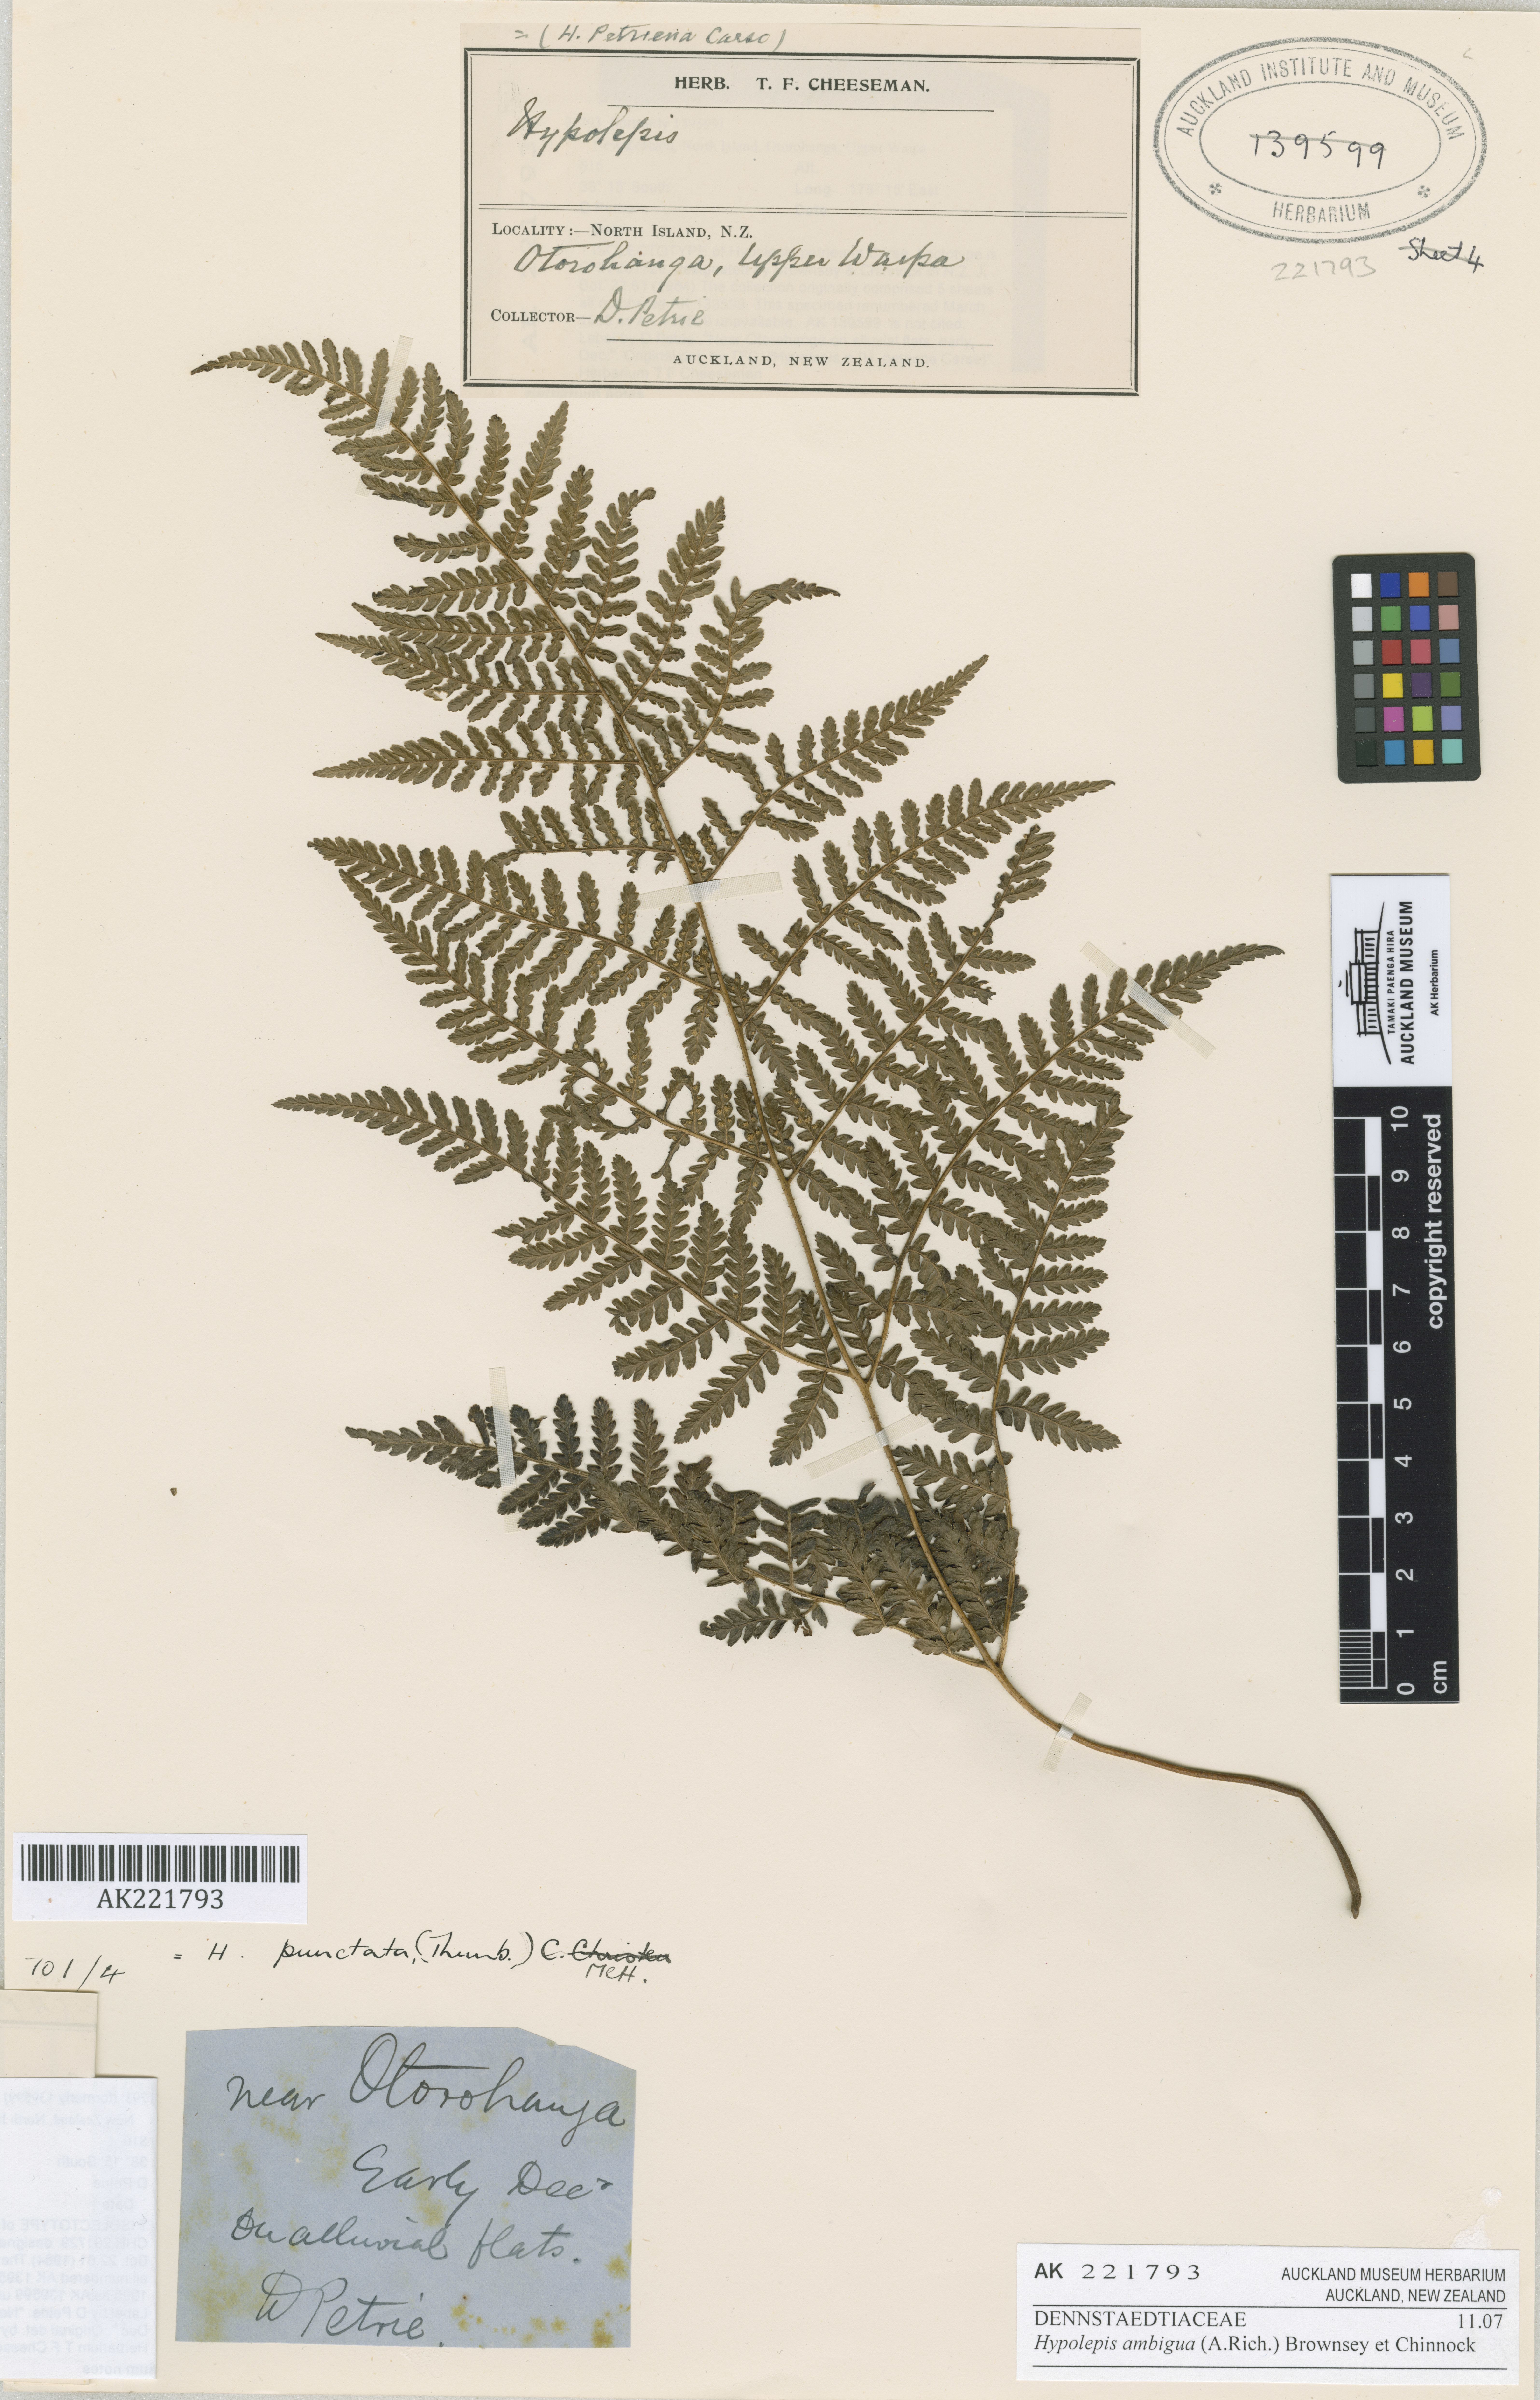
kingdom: Plantae
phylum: Tracheophyta
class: Polypodiopsida
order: Polypodiales
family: Dennstaedtiaceae
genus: Hypolepis
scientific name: Hypolepis ambigua
